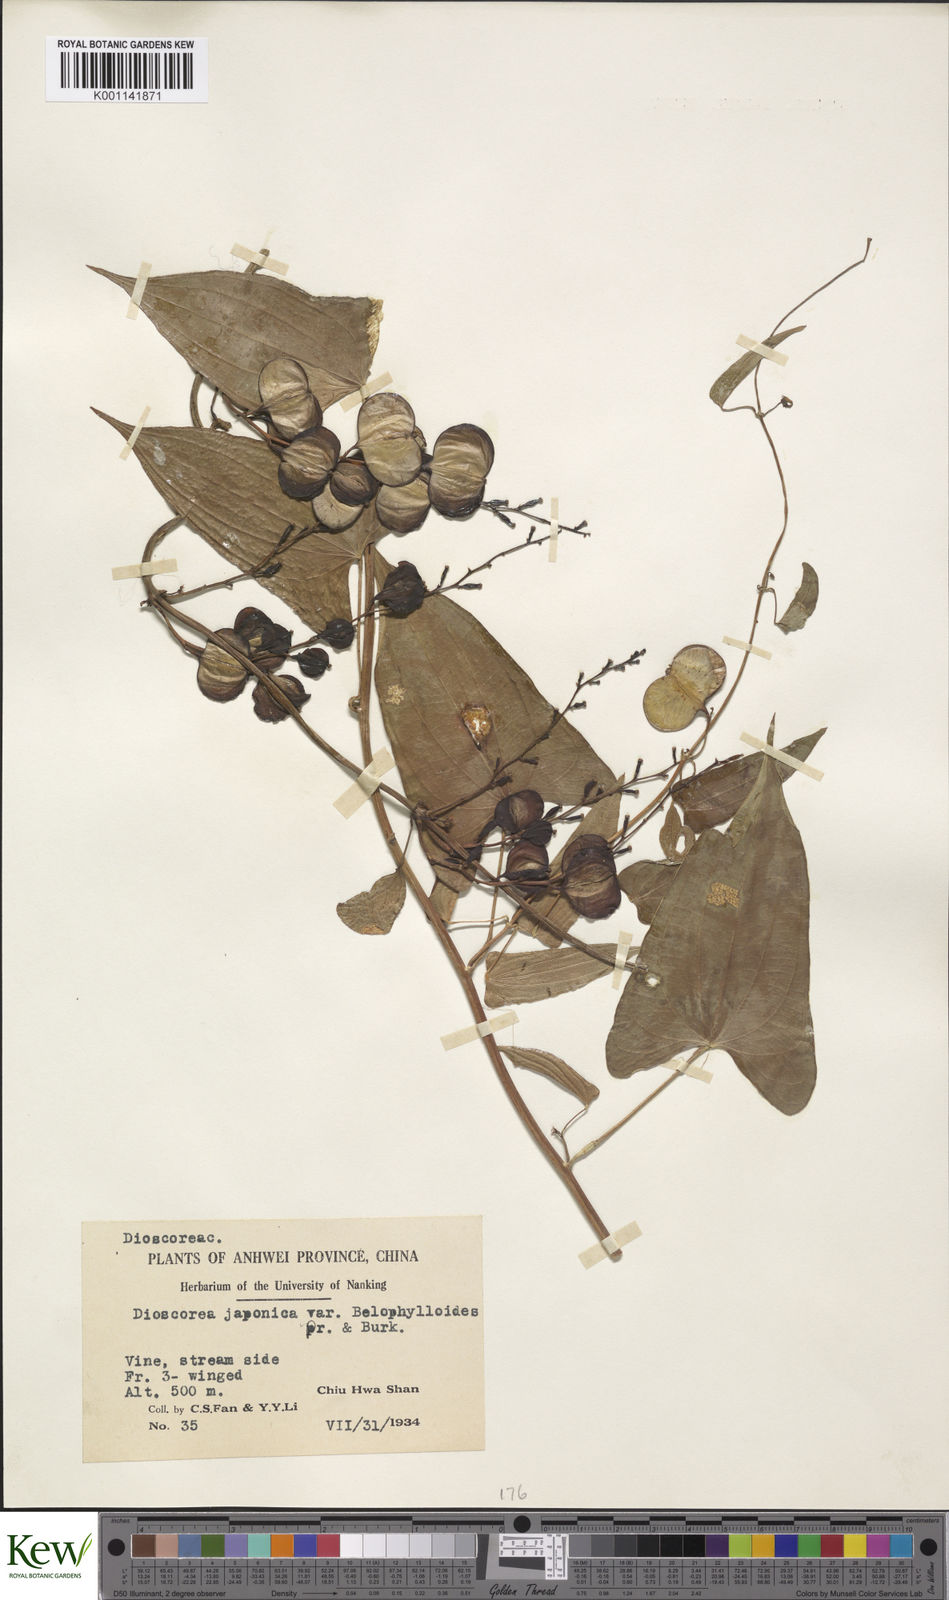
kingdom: Plantae
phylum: Tracheophyta
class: Liliopsida
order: Dioscoreales
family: Dioscoreaceae
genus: Dioscorea
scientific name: Dioscorea japonica
